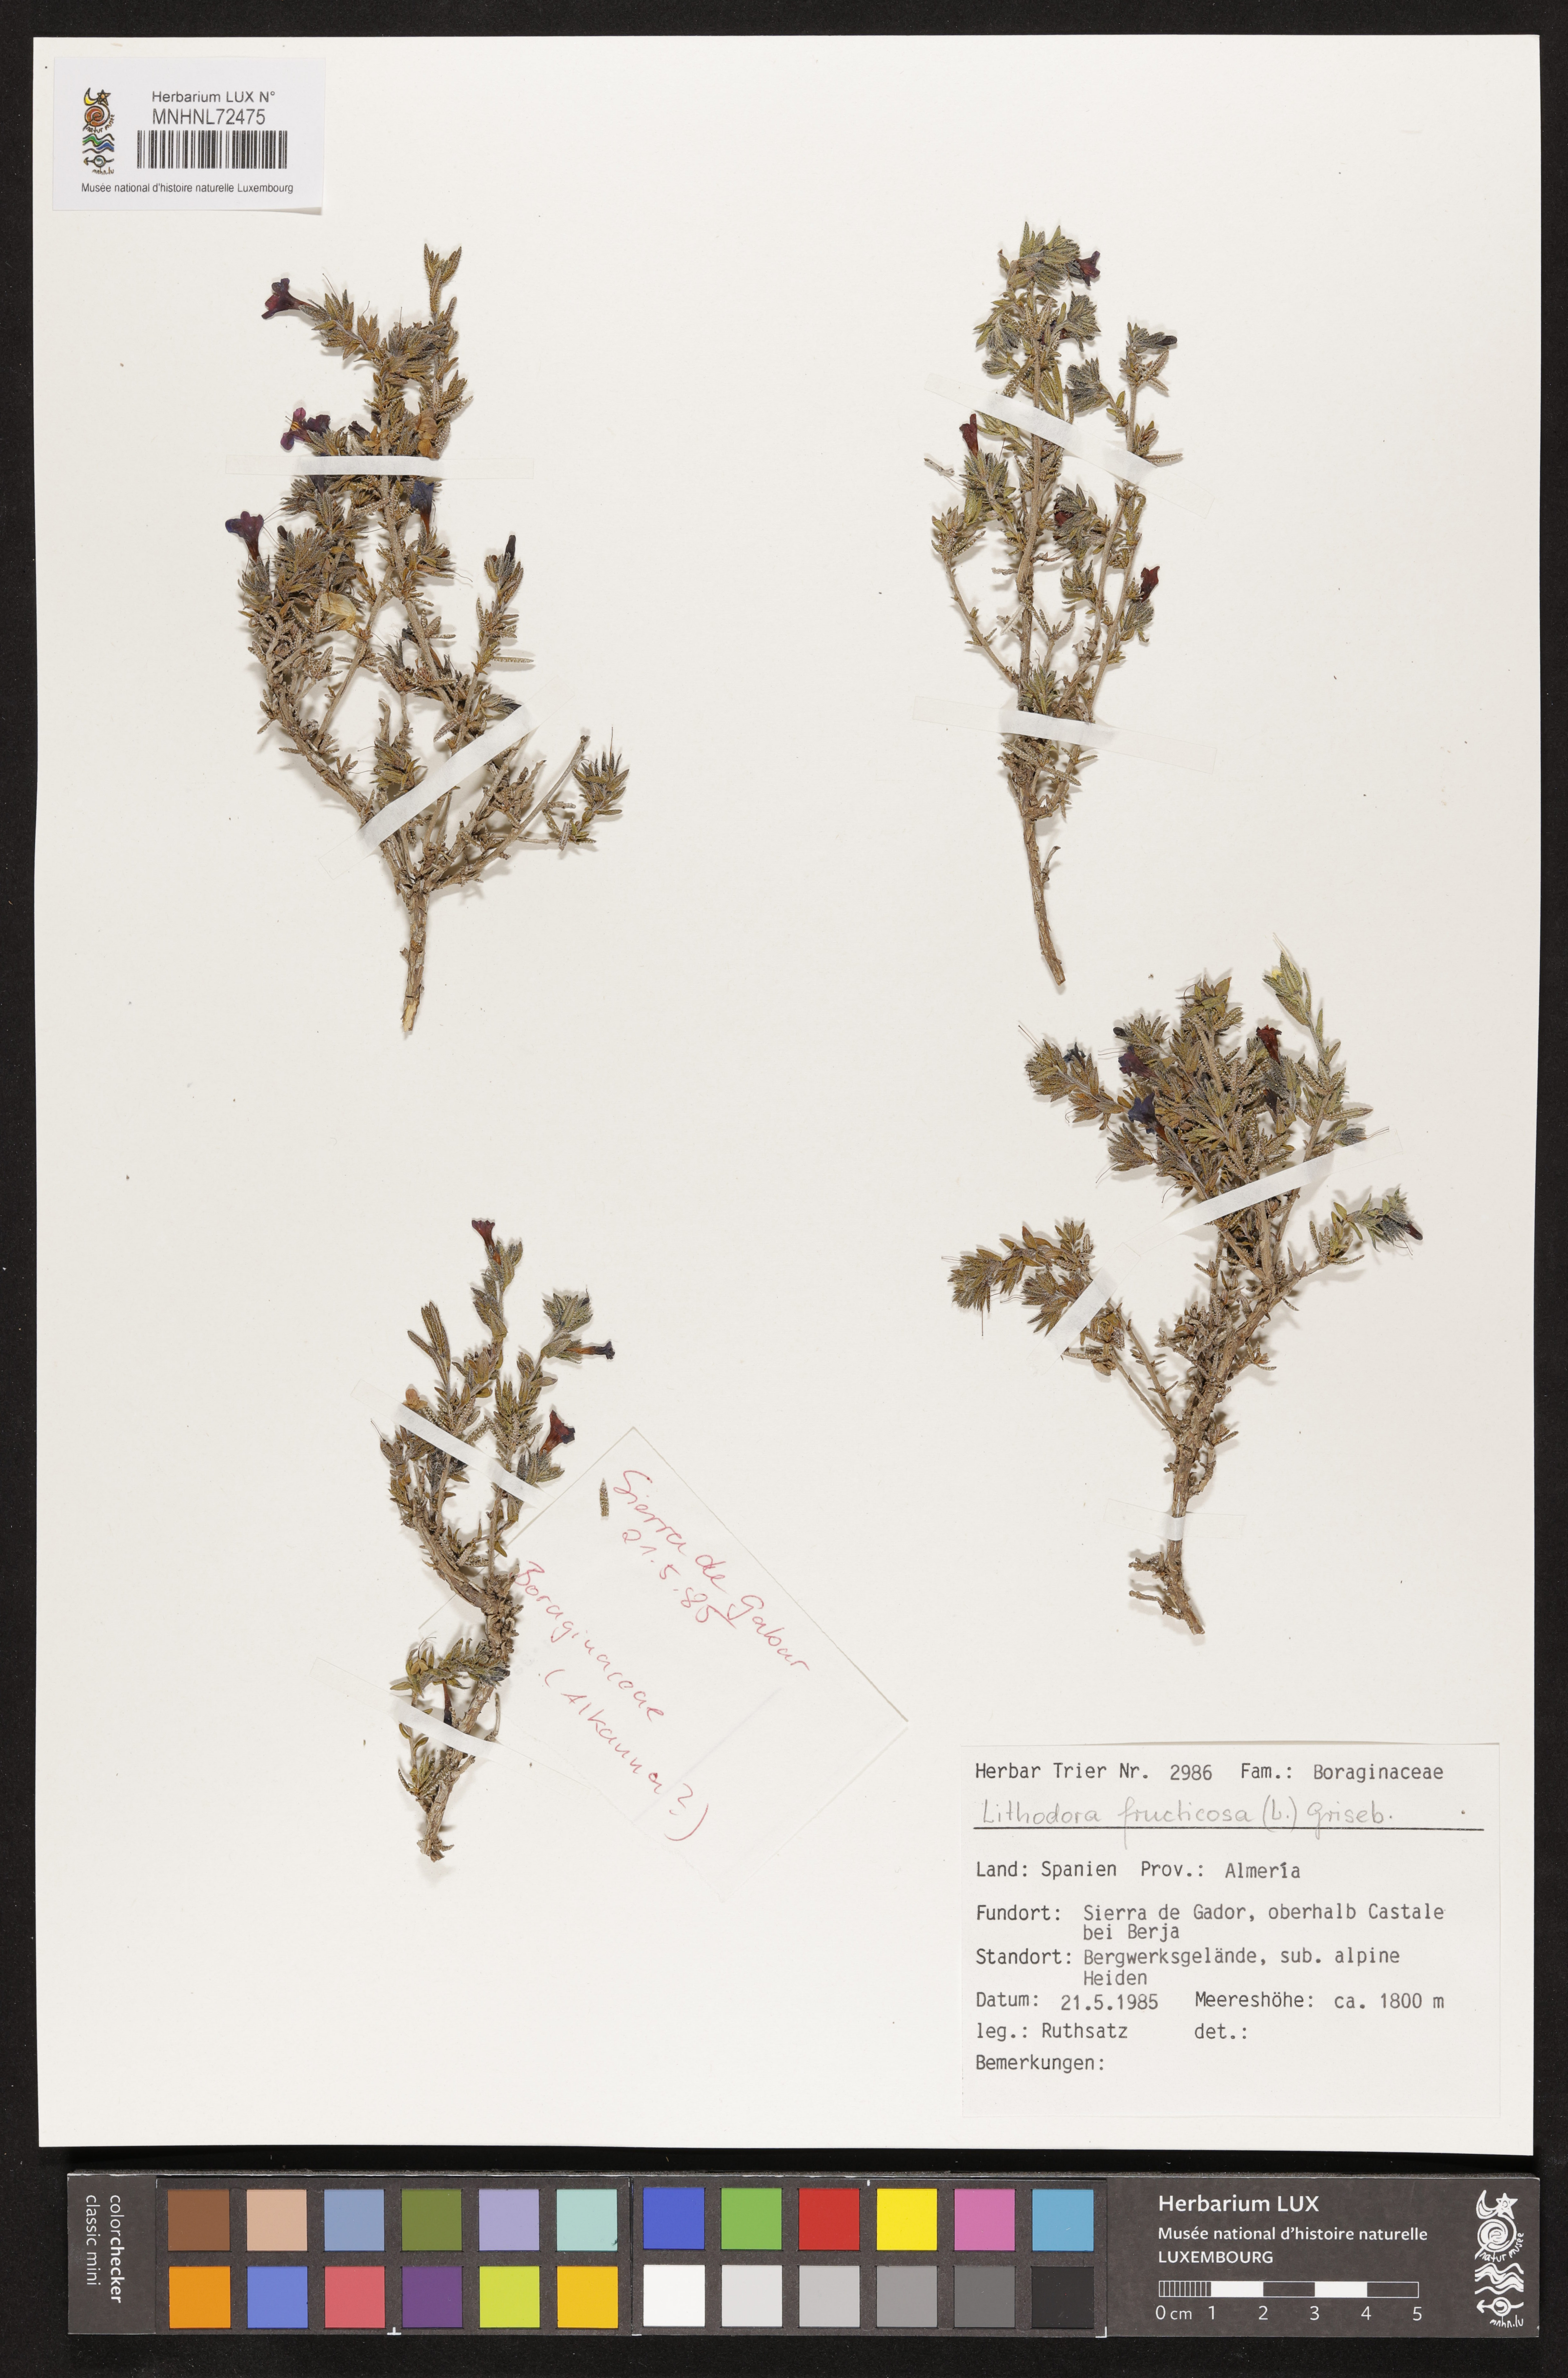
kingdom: Plantae
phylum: Tracheophyta
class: Magnoliopsida
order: Boraginales
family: Boraginaceae
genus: Lithodora
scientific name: Lithodora fruticosa
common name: Shrubby gromwell
